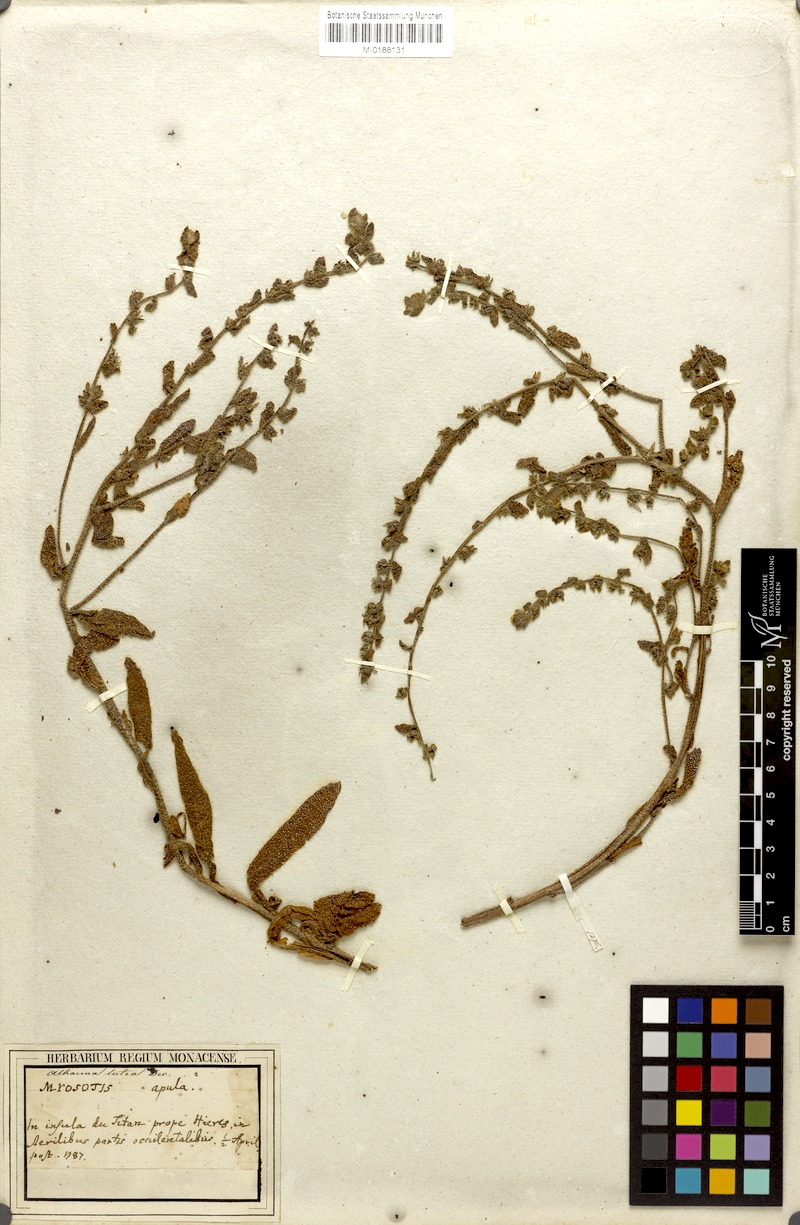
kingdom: Plantae
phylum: Tracheophyta
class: Magnoliopsida
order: Boraginales
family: Boraginaceae
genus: Alkanna
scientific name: Alkanna lutea
